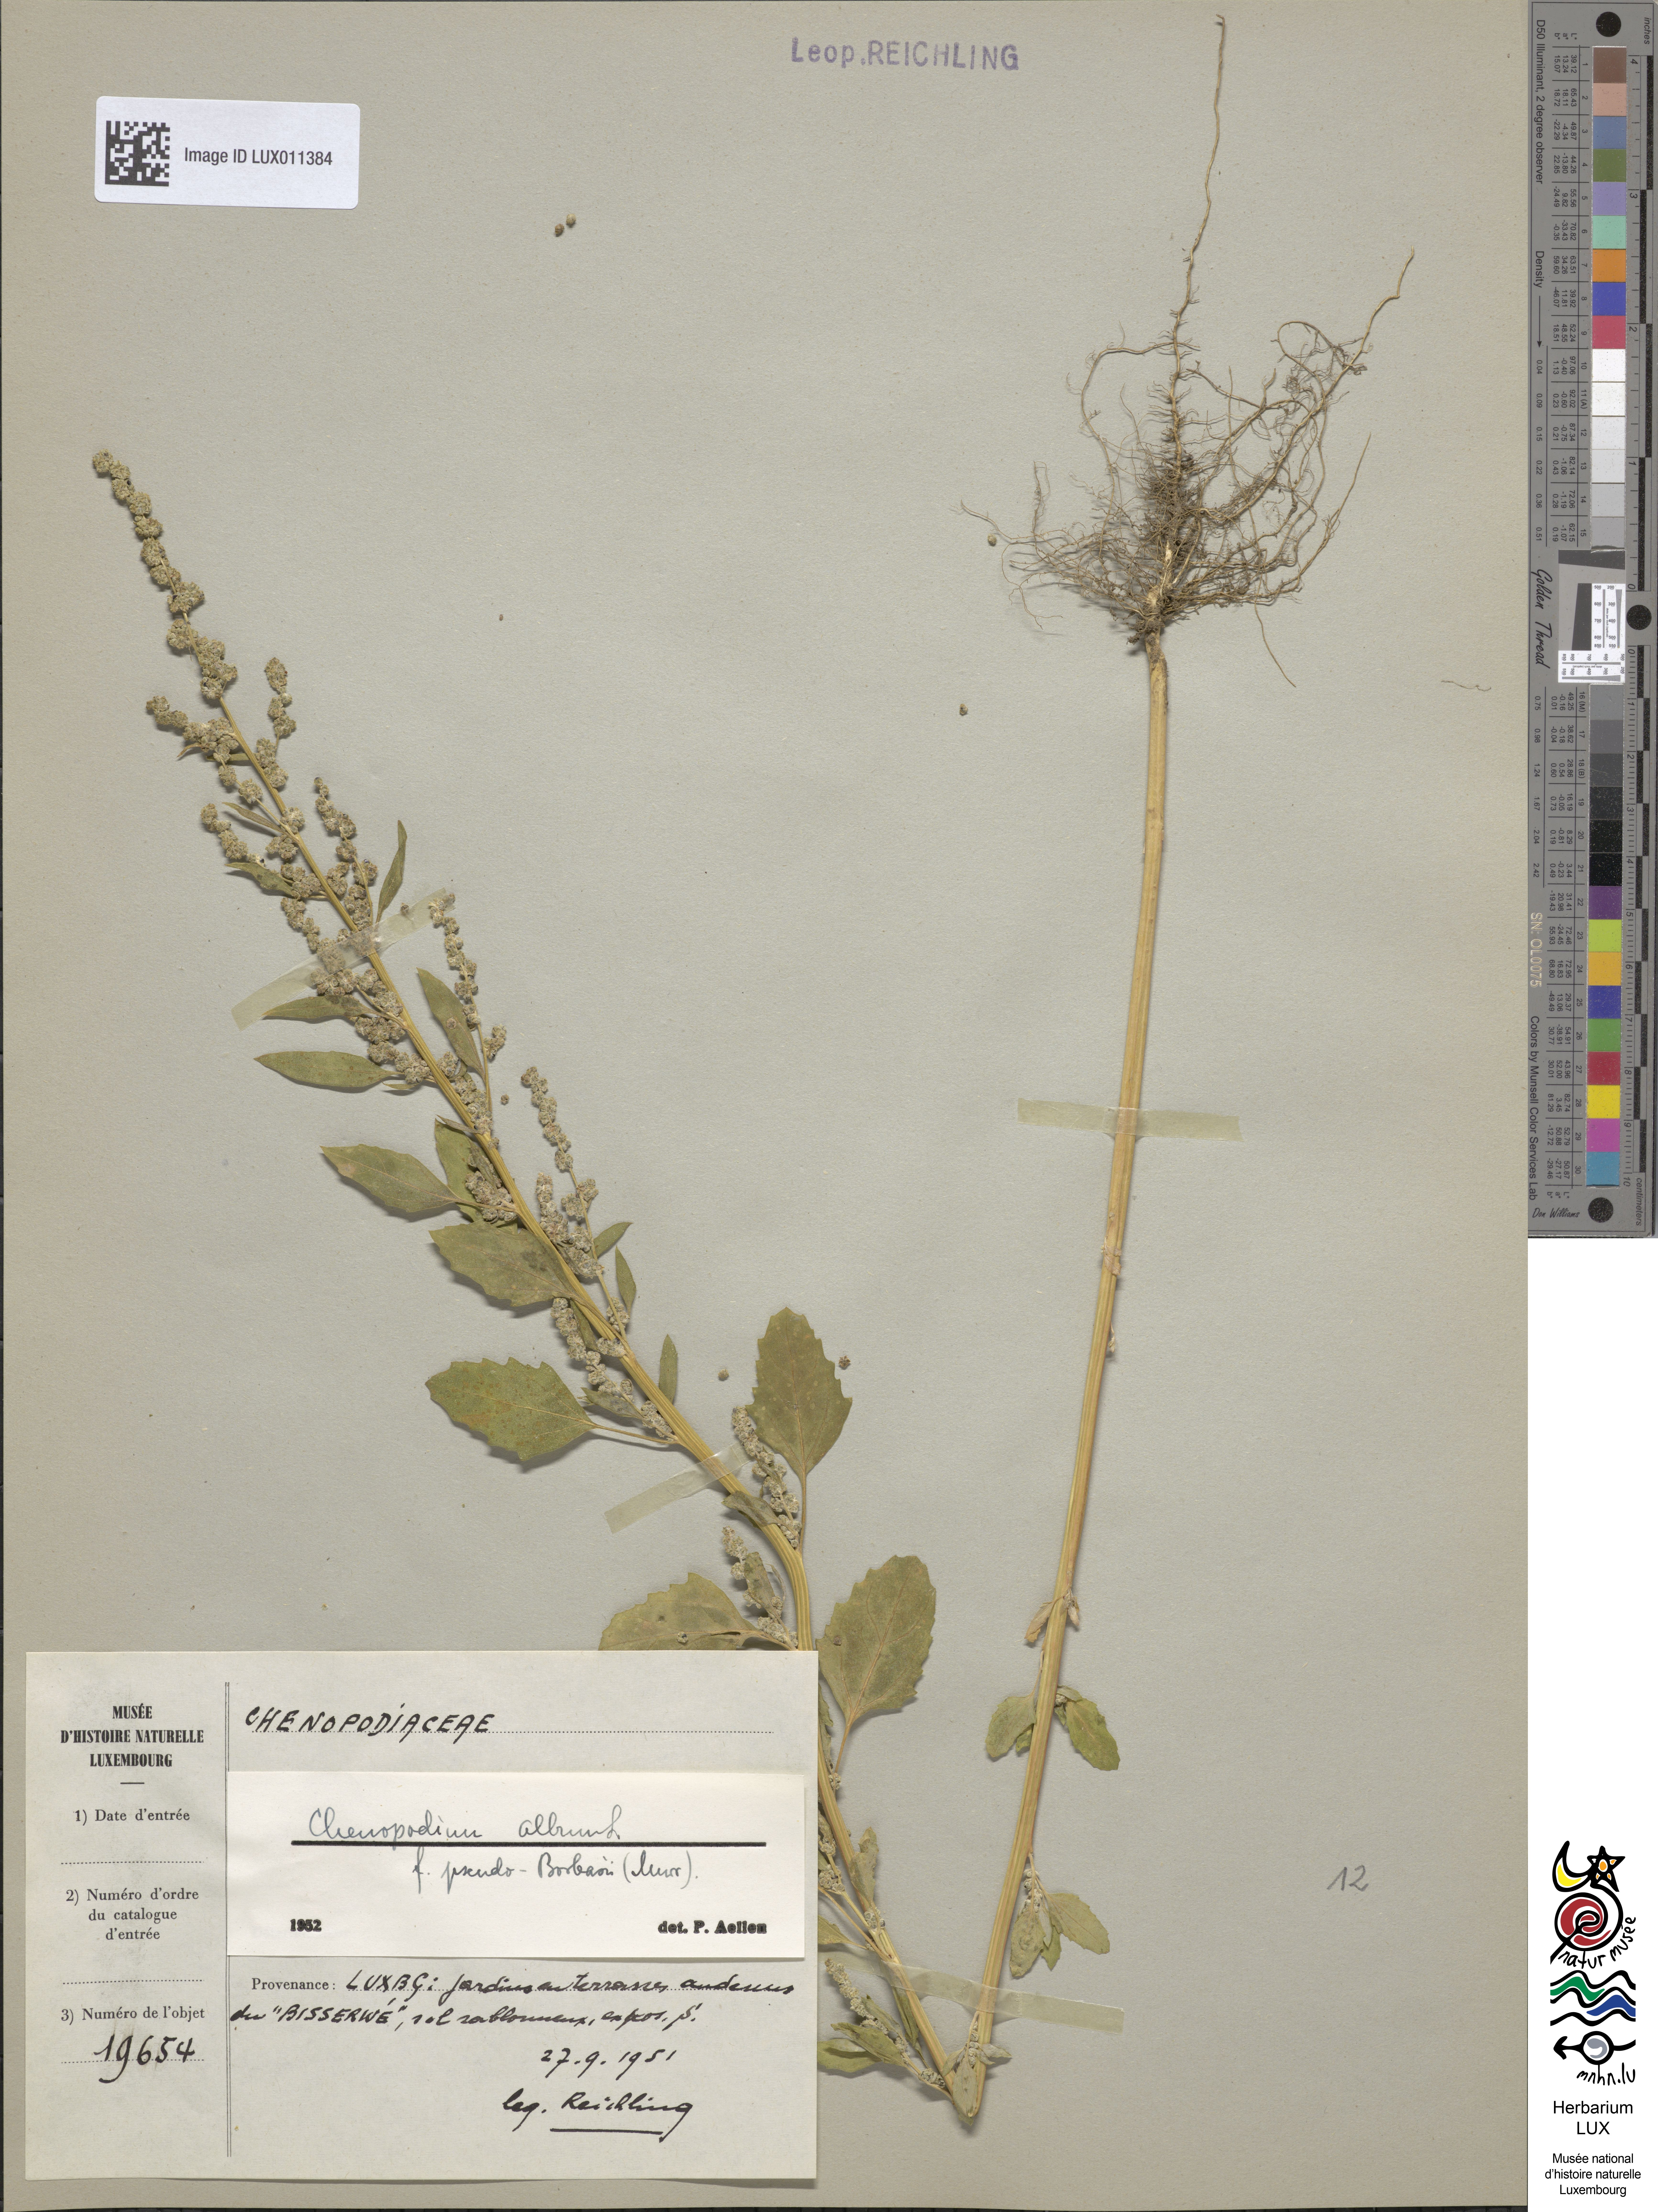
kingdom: Plantae
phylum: Tracheophyta
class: Magnoliopsida
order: Caryophyllales
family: Amaranthaceae
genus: Chenopodium
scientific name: Chenopodium betaceum
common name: Striped goosefoot
